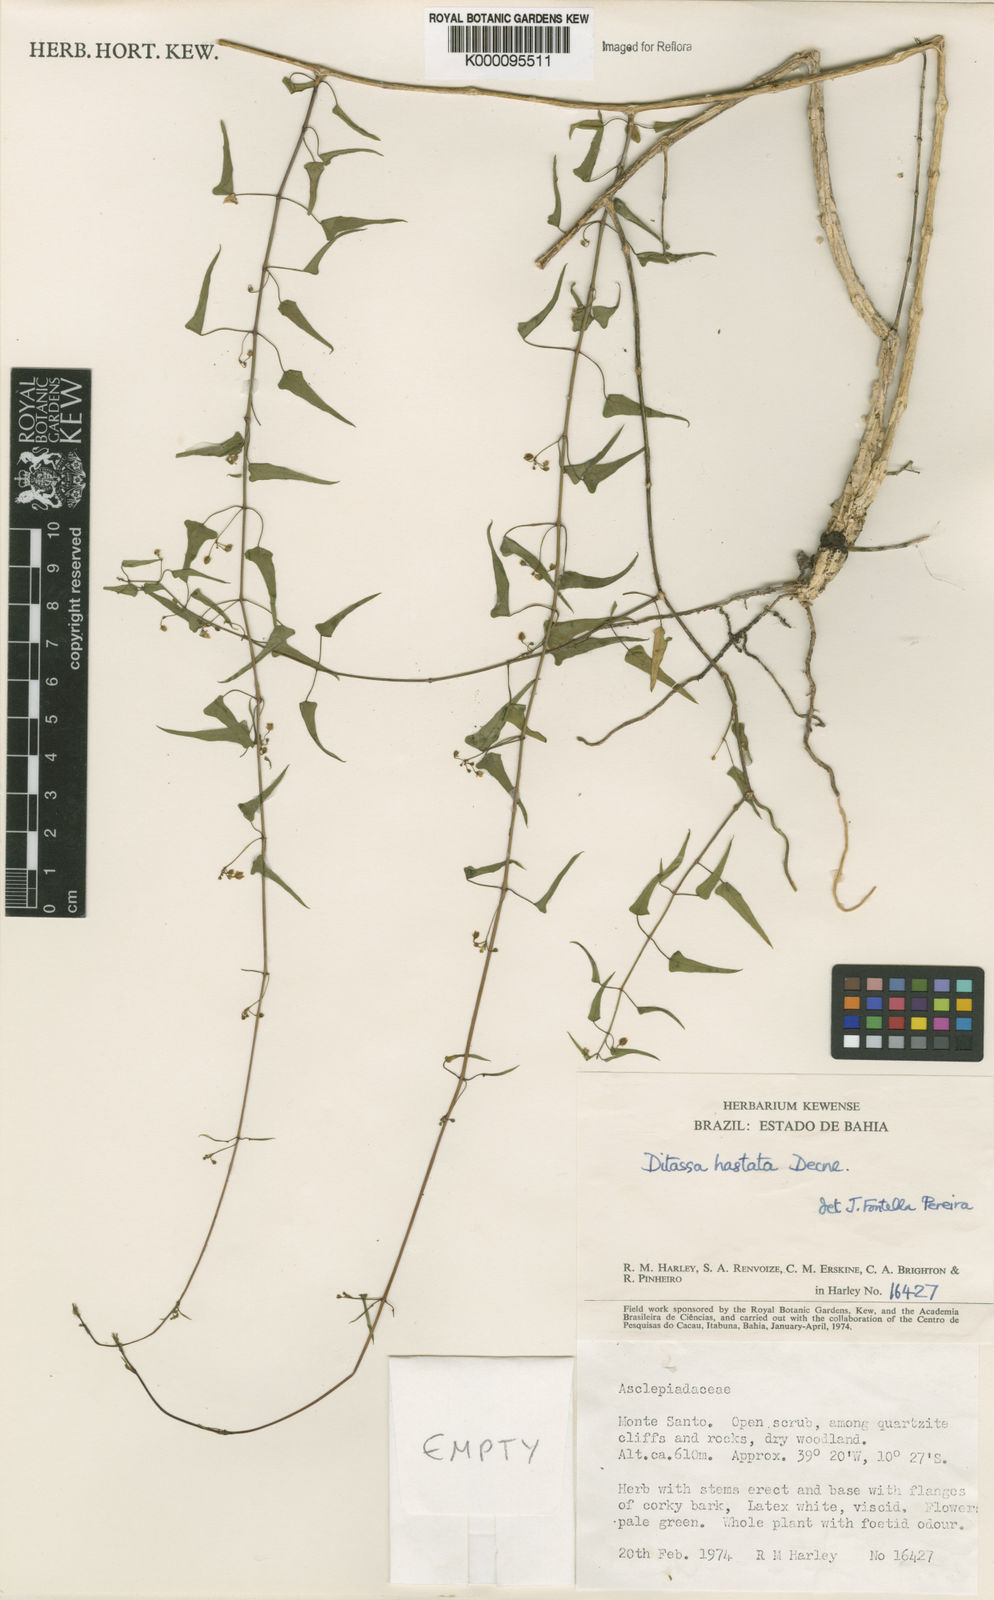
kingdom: Plantae
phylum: Tracheophyta
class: Magnoliopsida
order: Gentianales
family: Apocynaceae
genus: Ditassa
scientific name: Ditassa hastata
